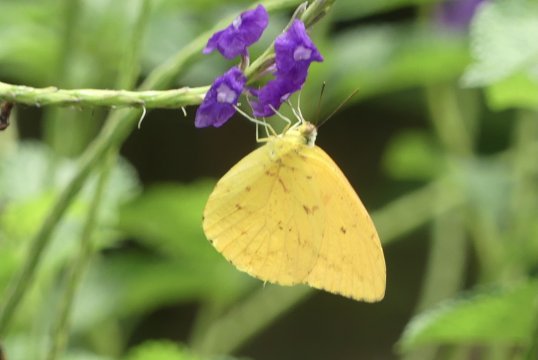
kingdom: Animalia
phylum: Arthropoda
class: Insecta
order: Lepidoptera
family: Pieridae
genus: Phoebis
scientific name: Phoebis argante
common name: Apricot Sulphur
